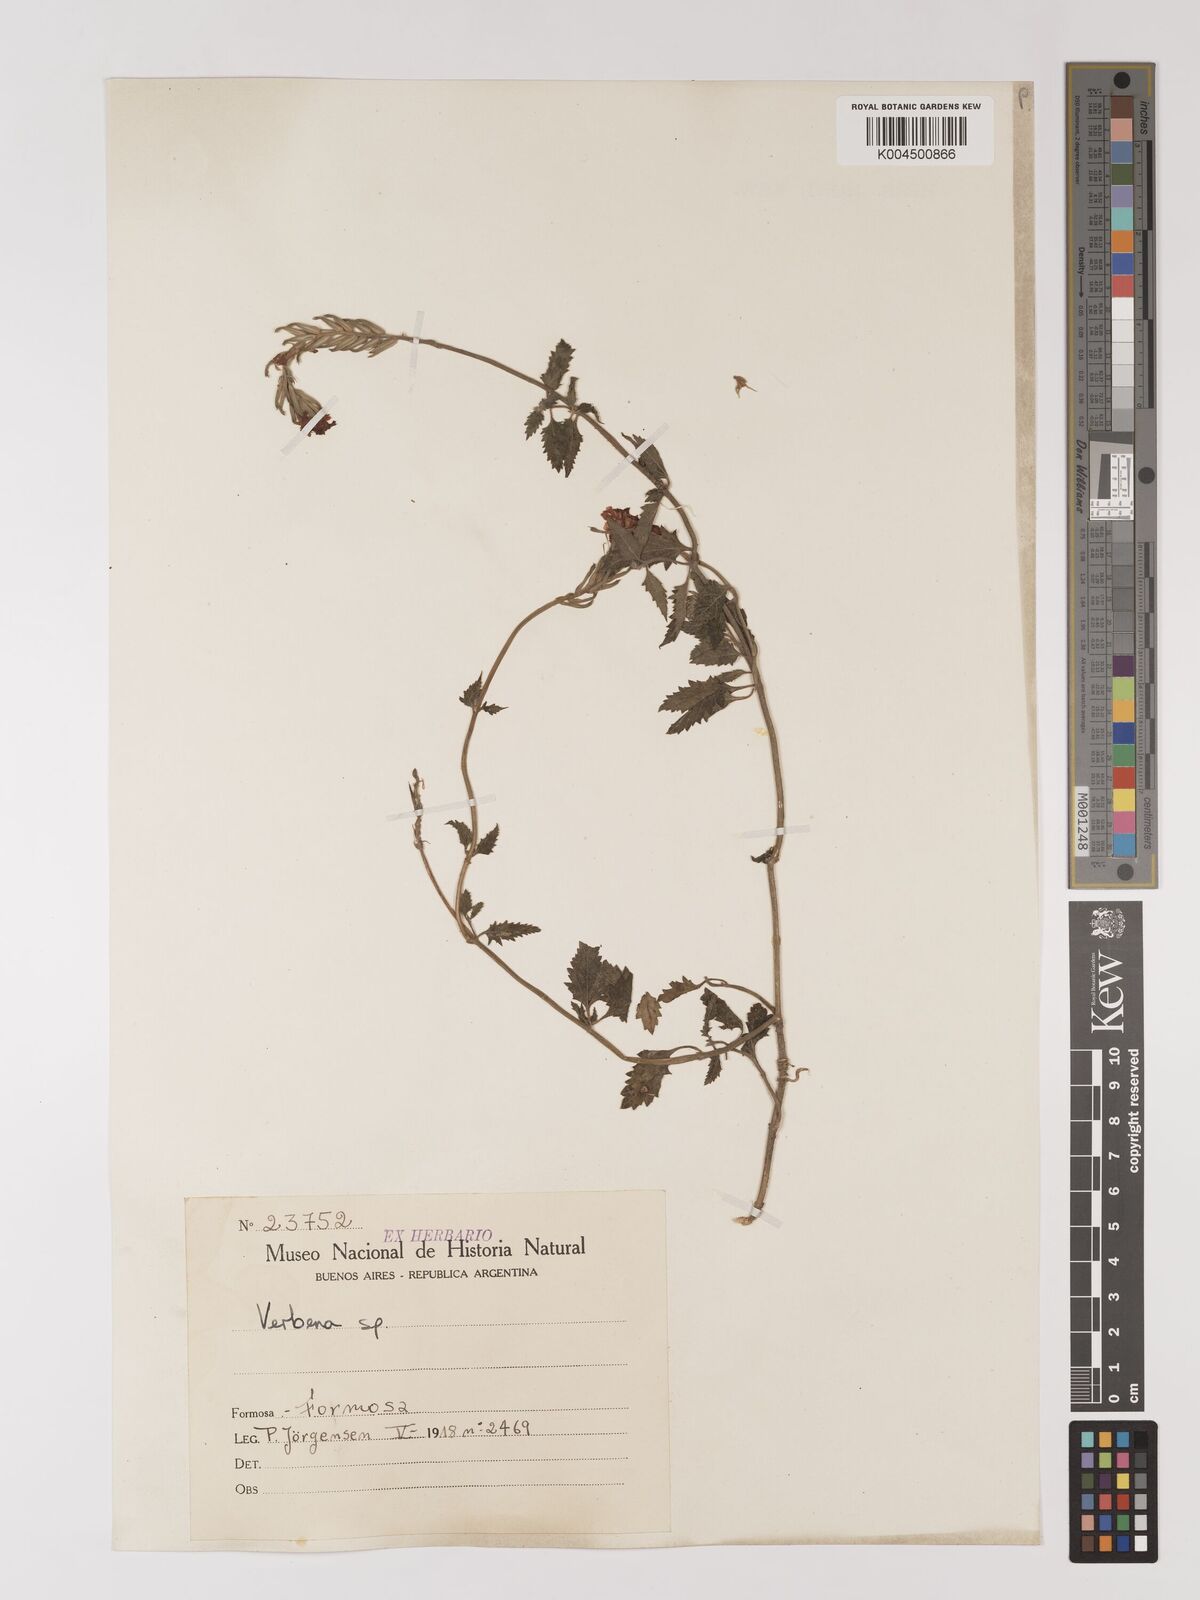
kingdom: Plantae
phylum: Tracheophyta
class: Magnoliopsida
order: Lamiales
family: Verbenaceae
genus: Verbena
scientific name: Verbena
